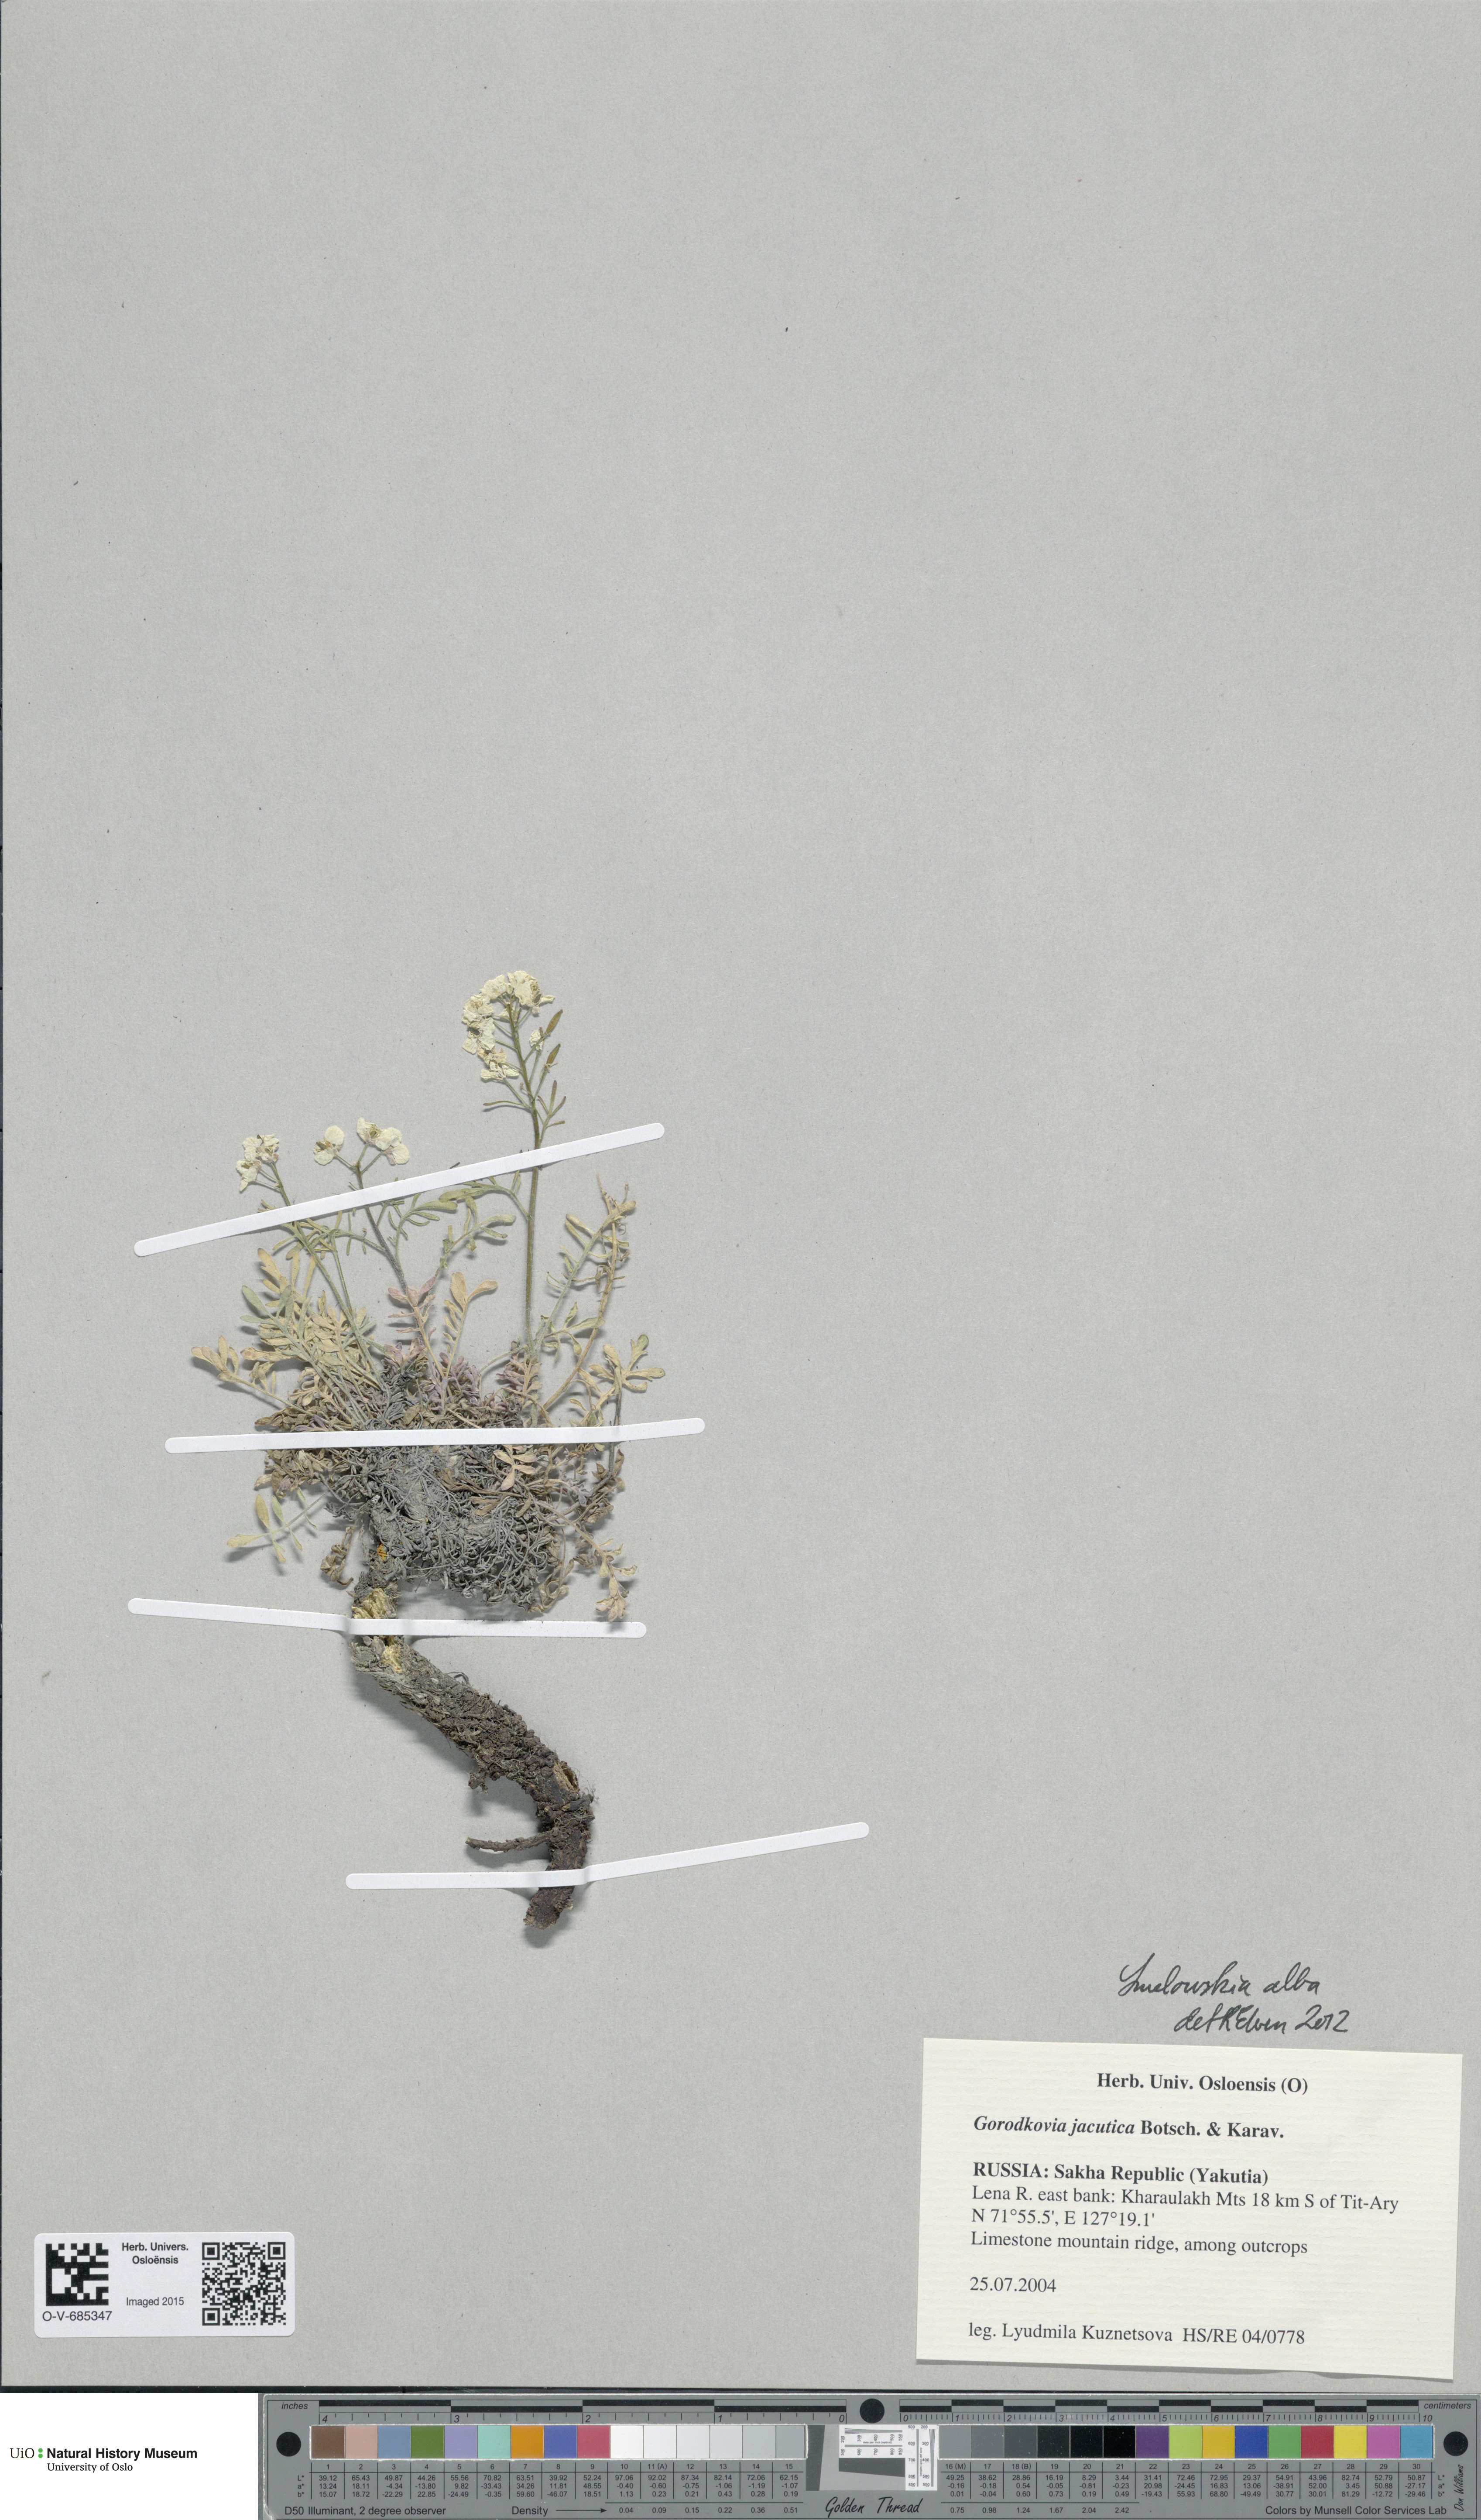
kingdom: Plantae
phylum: Tracheophyta
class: Magnoliopsida
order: Brassicales
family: Brassicaceae
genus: Smelowskia
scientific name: Smelowskia alba
